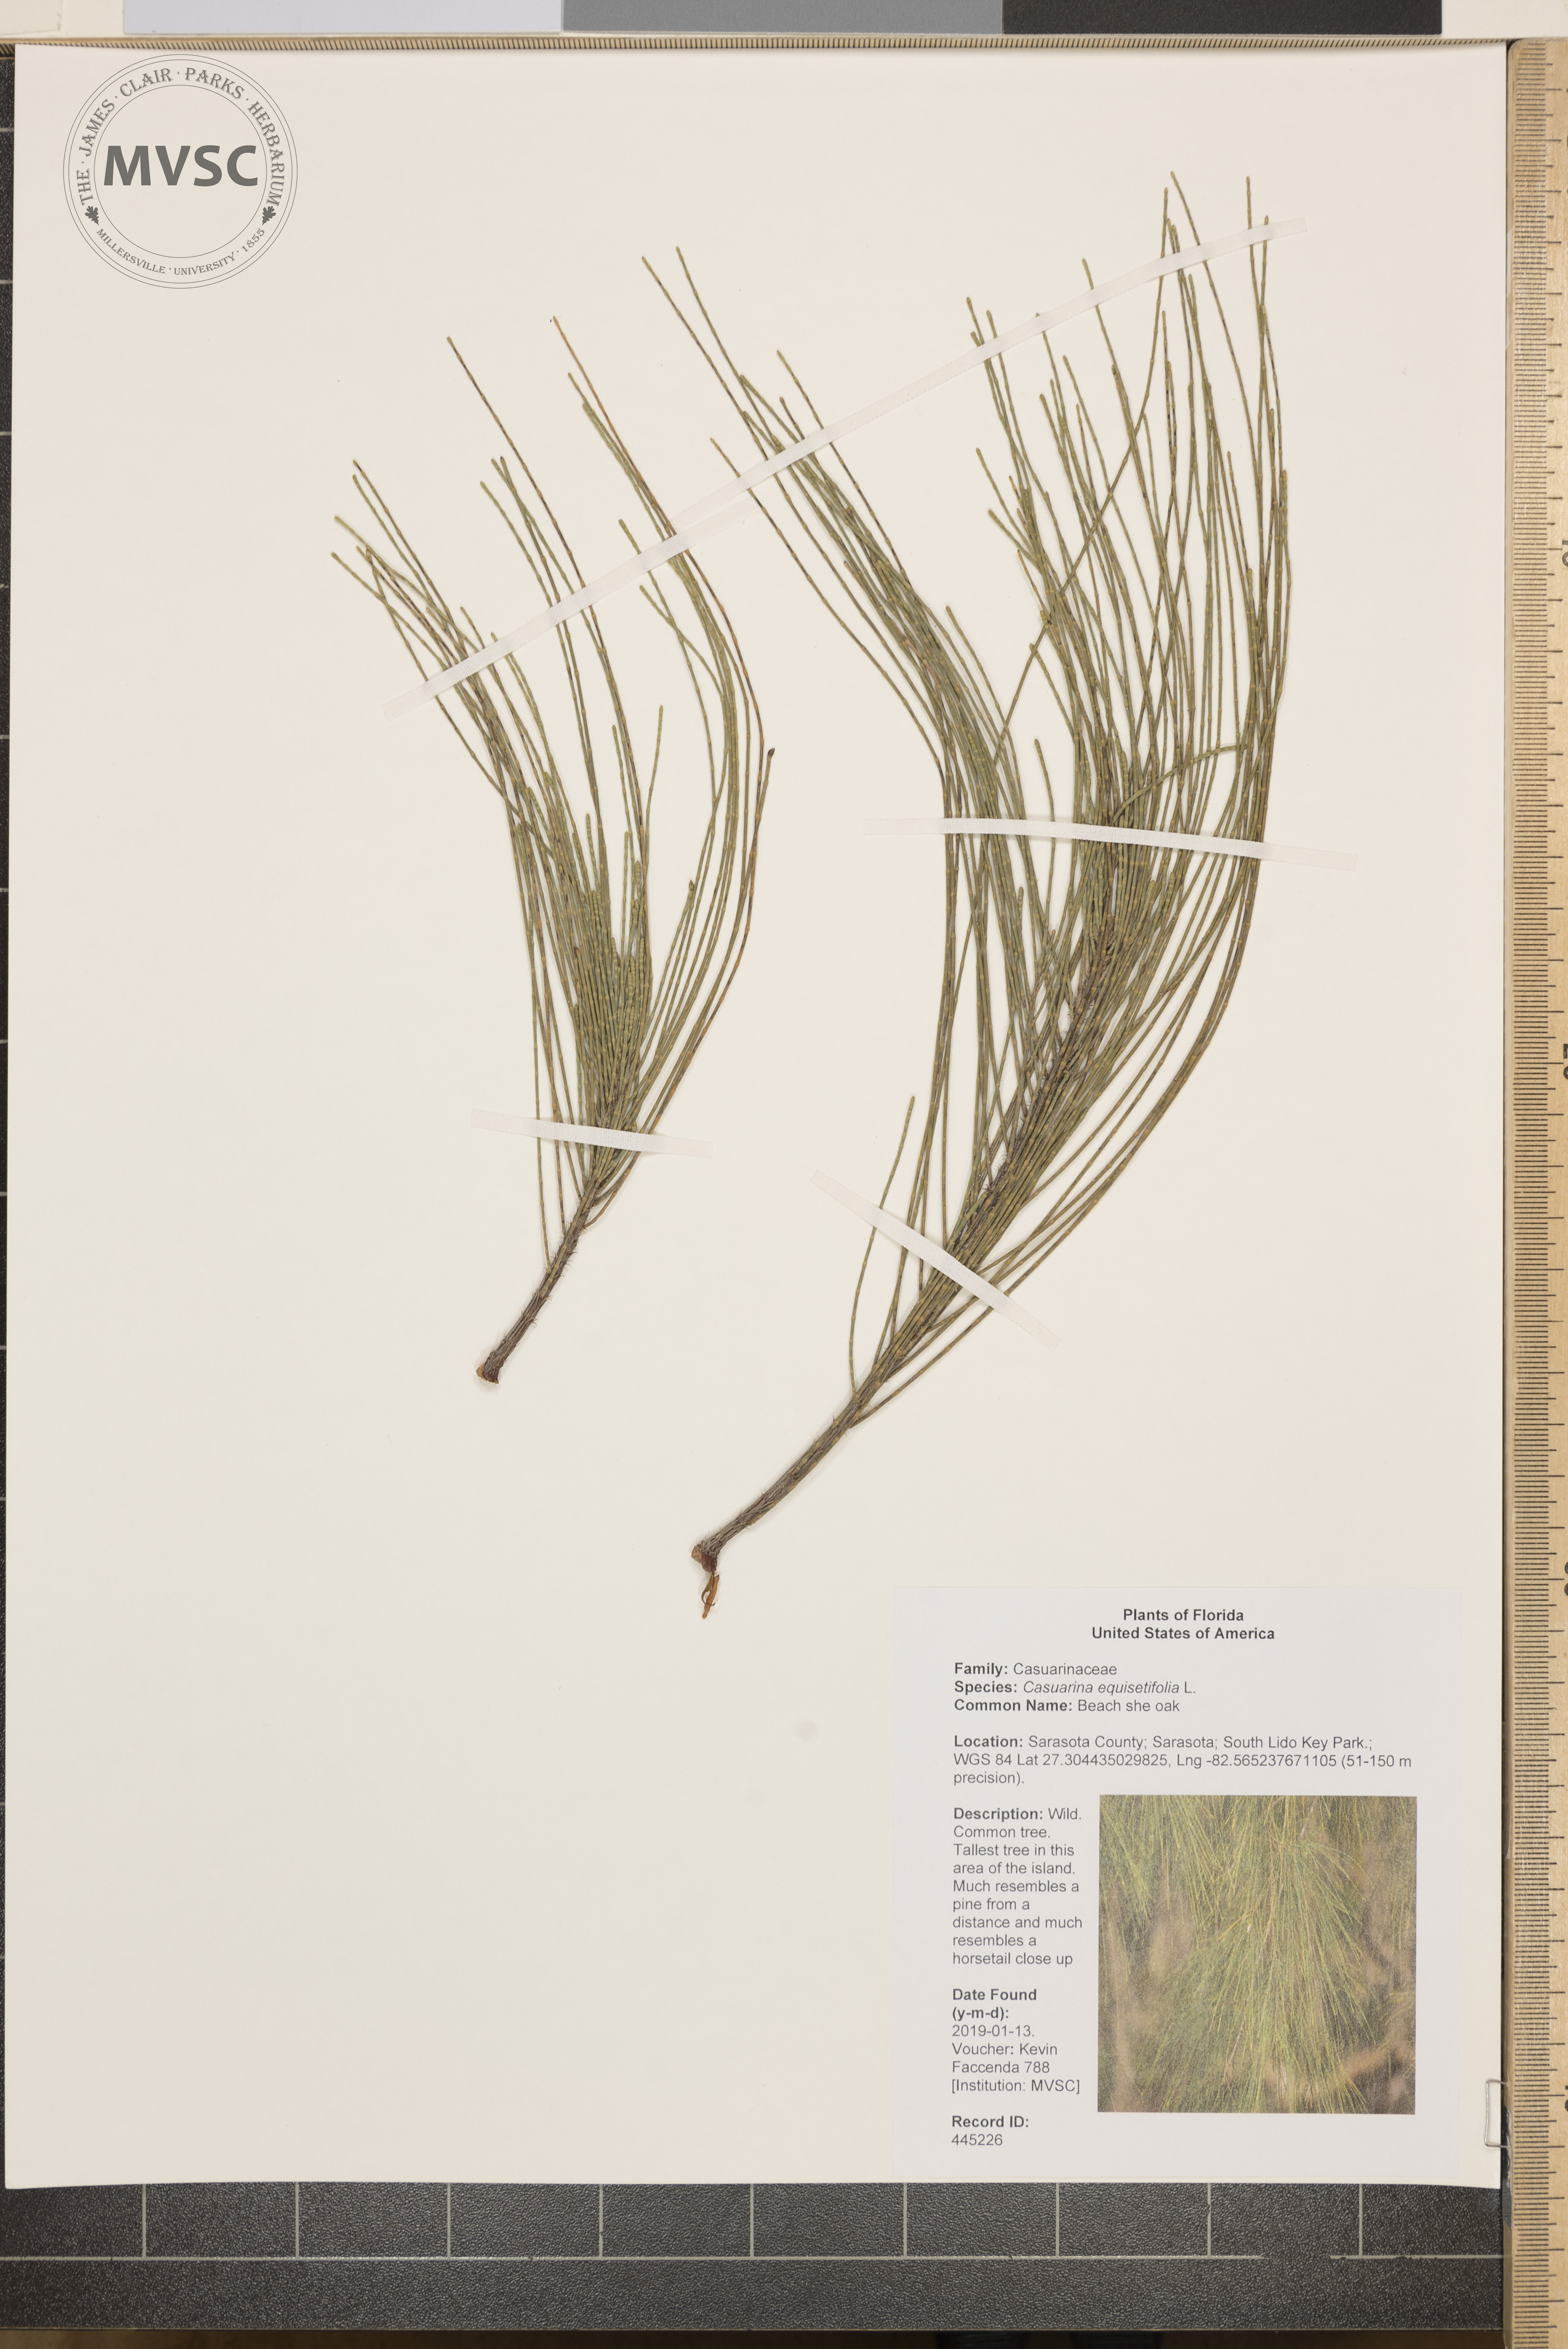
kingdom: Plantae
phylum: Tracheophyta
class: Magnoliopsida
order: Fagales
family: Casuarinaceae
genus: Casuarina
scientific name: Casuarina equisetifolia
